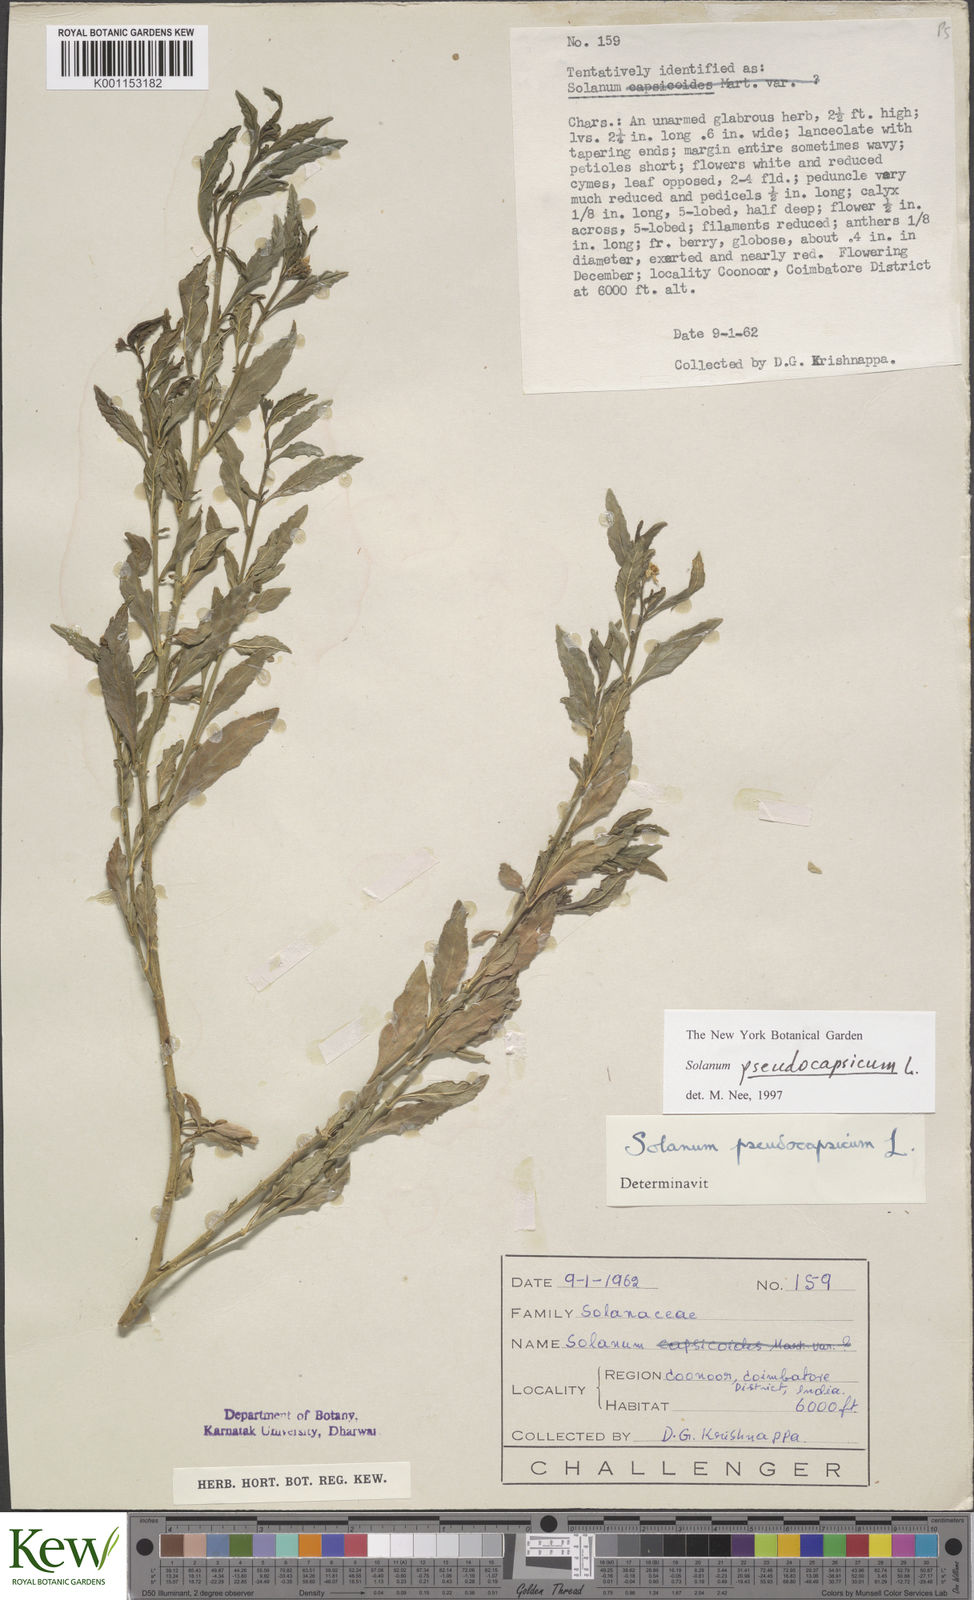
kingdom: Plantae
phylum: Tracheophyta
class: Magnoliopsida
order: Solanales
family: Solanaceae
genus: Solanum
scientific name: Solanum pseudocapsicum
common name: Jerusalem cherry
